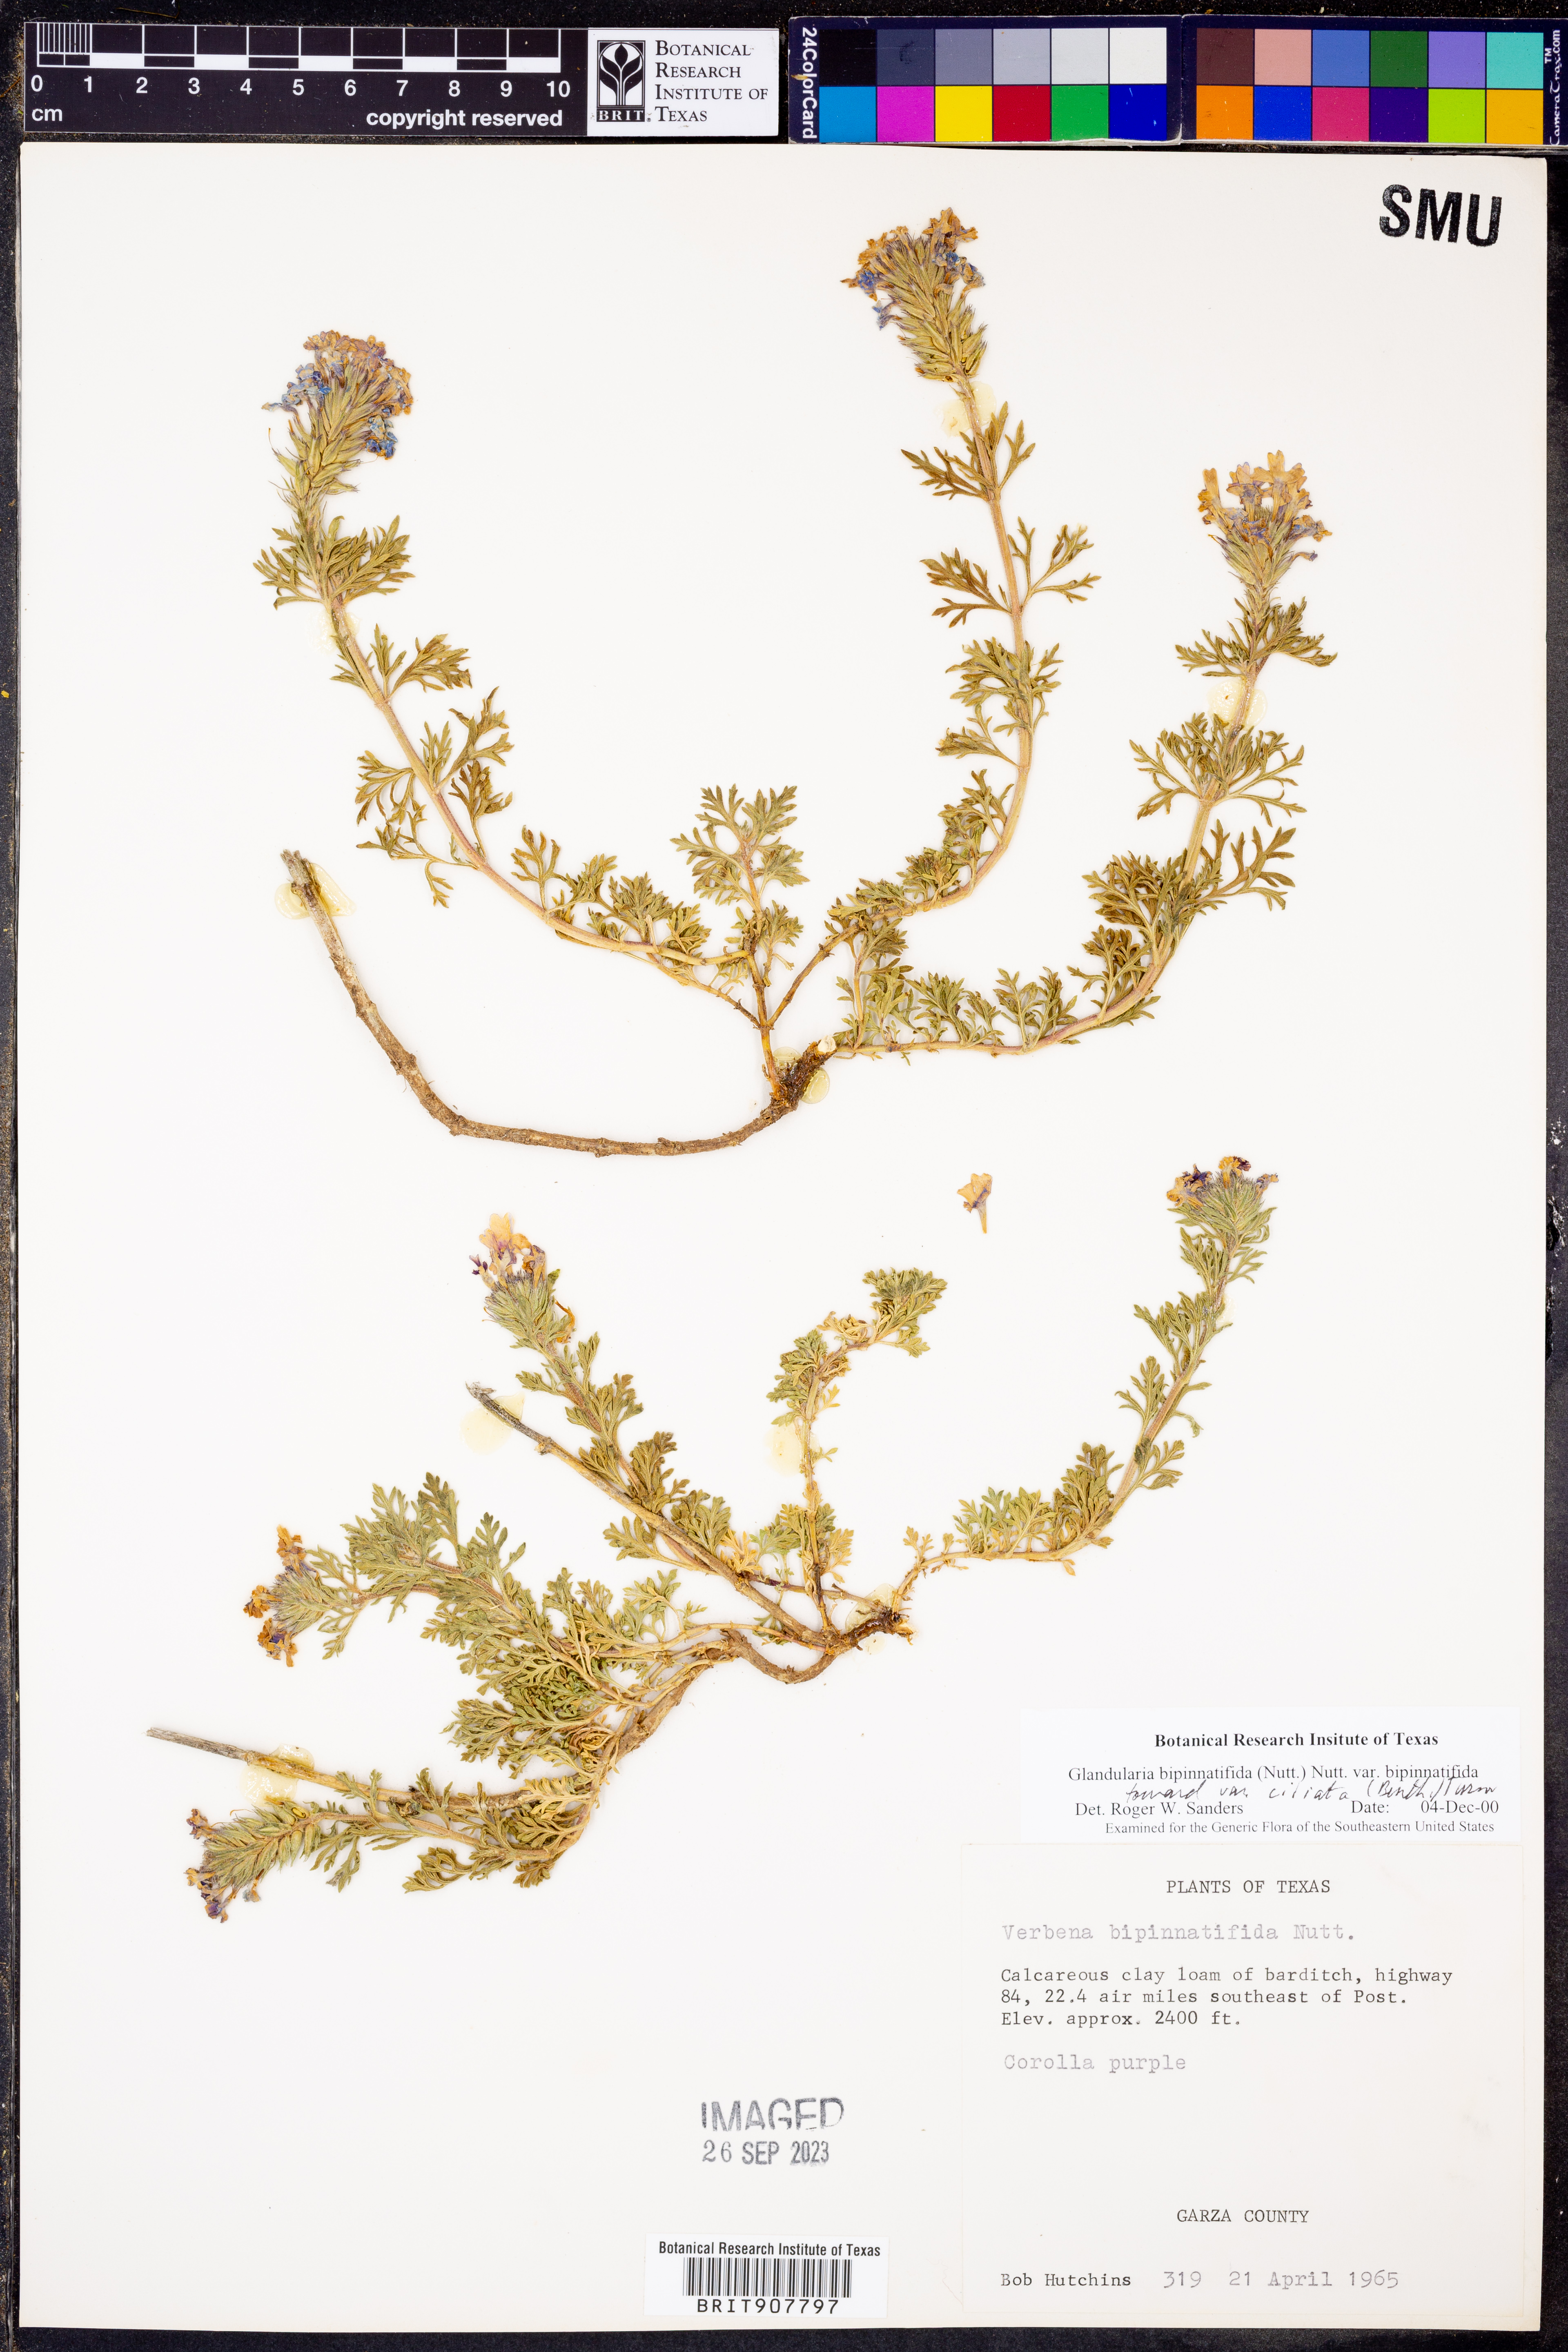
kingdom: Plantae
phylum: Tracheophyta
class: Magnoliopsida
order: Lamiales
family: Verbenaceae
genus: Verbena
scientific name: Verbena bipinnatifida
